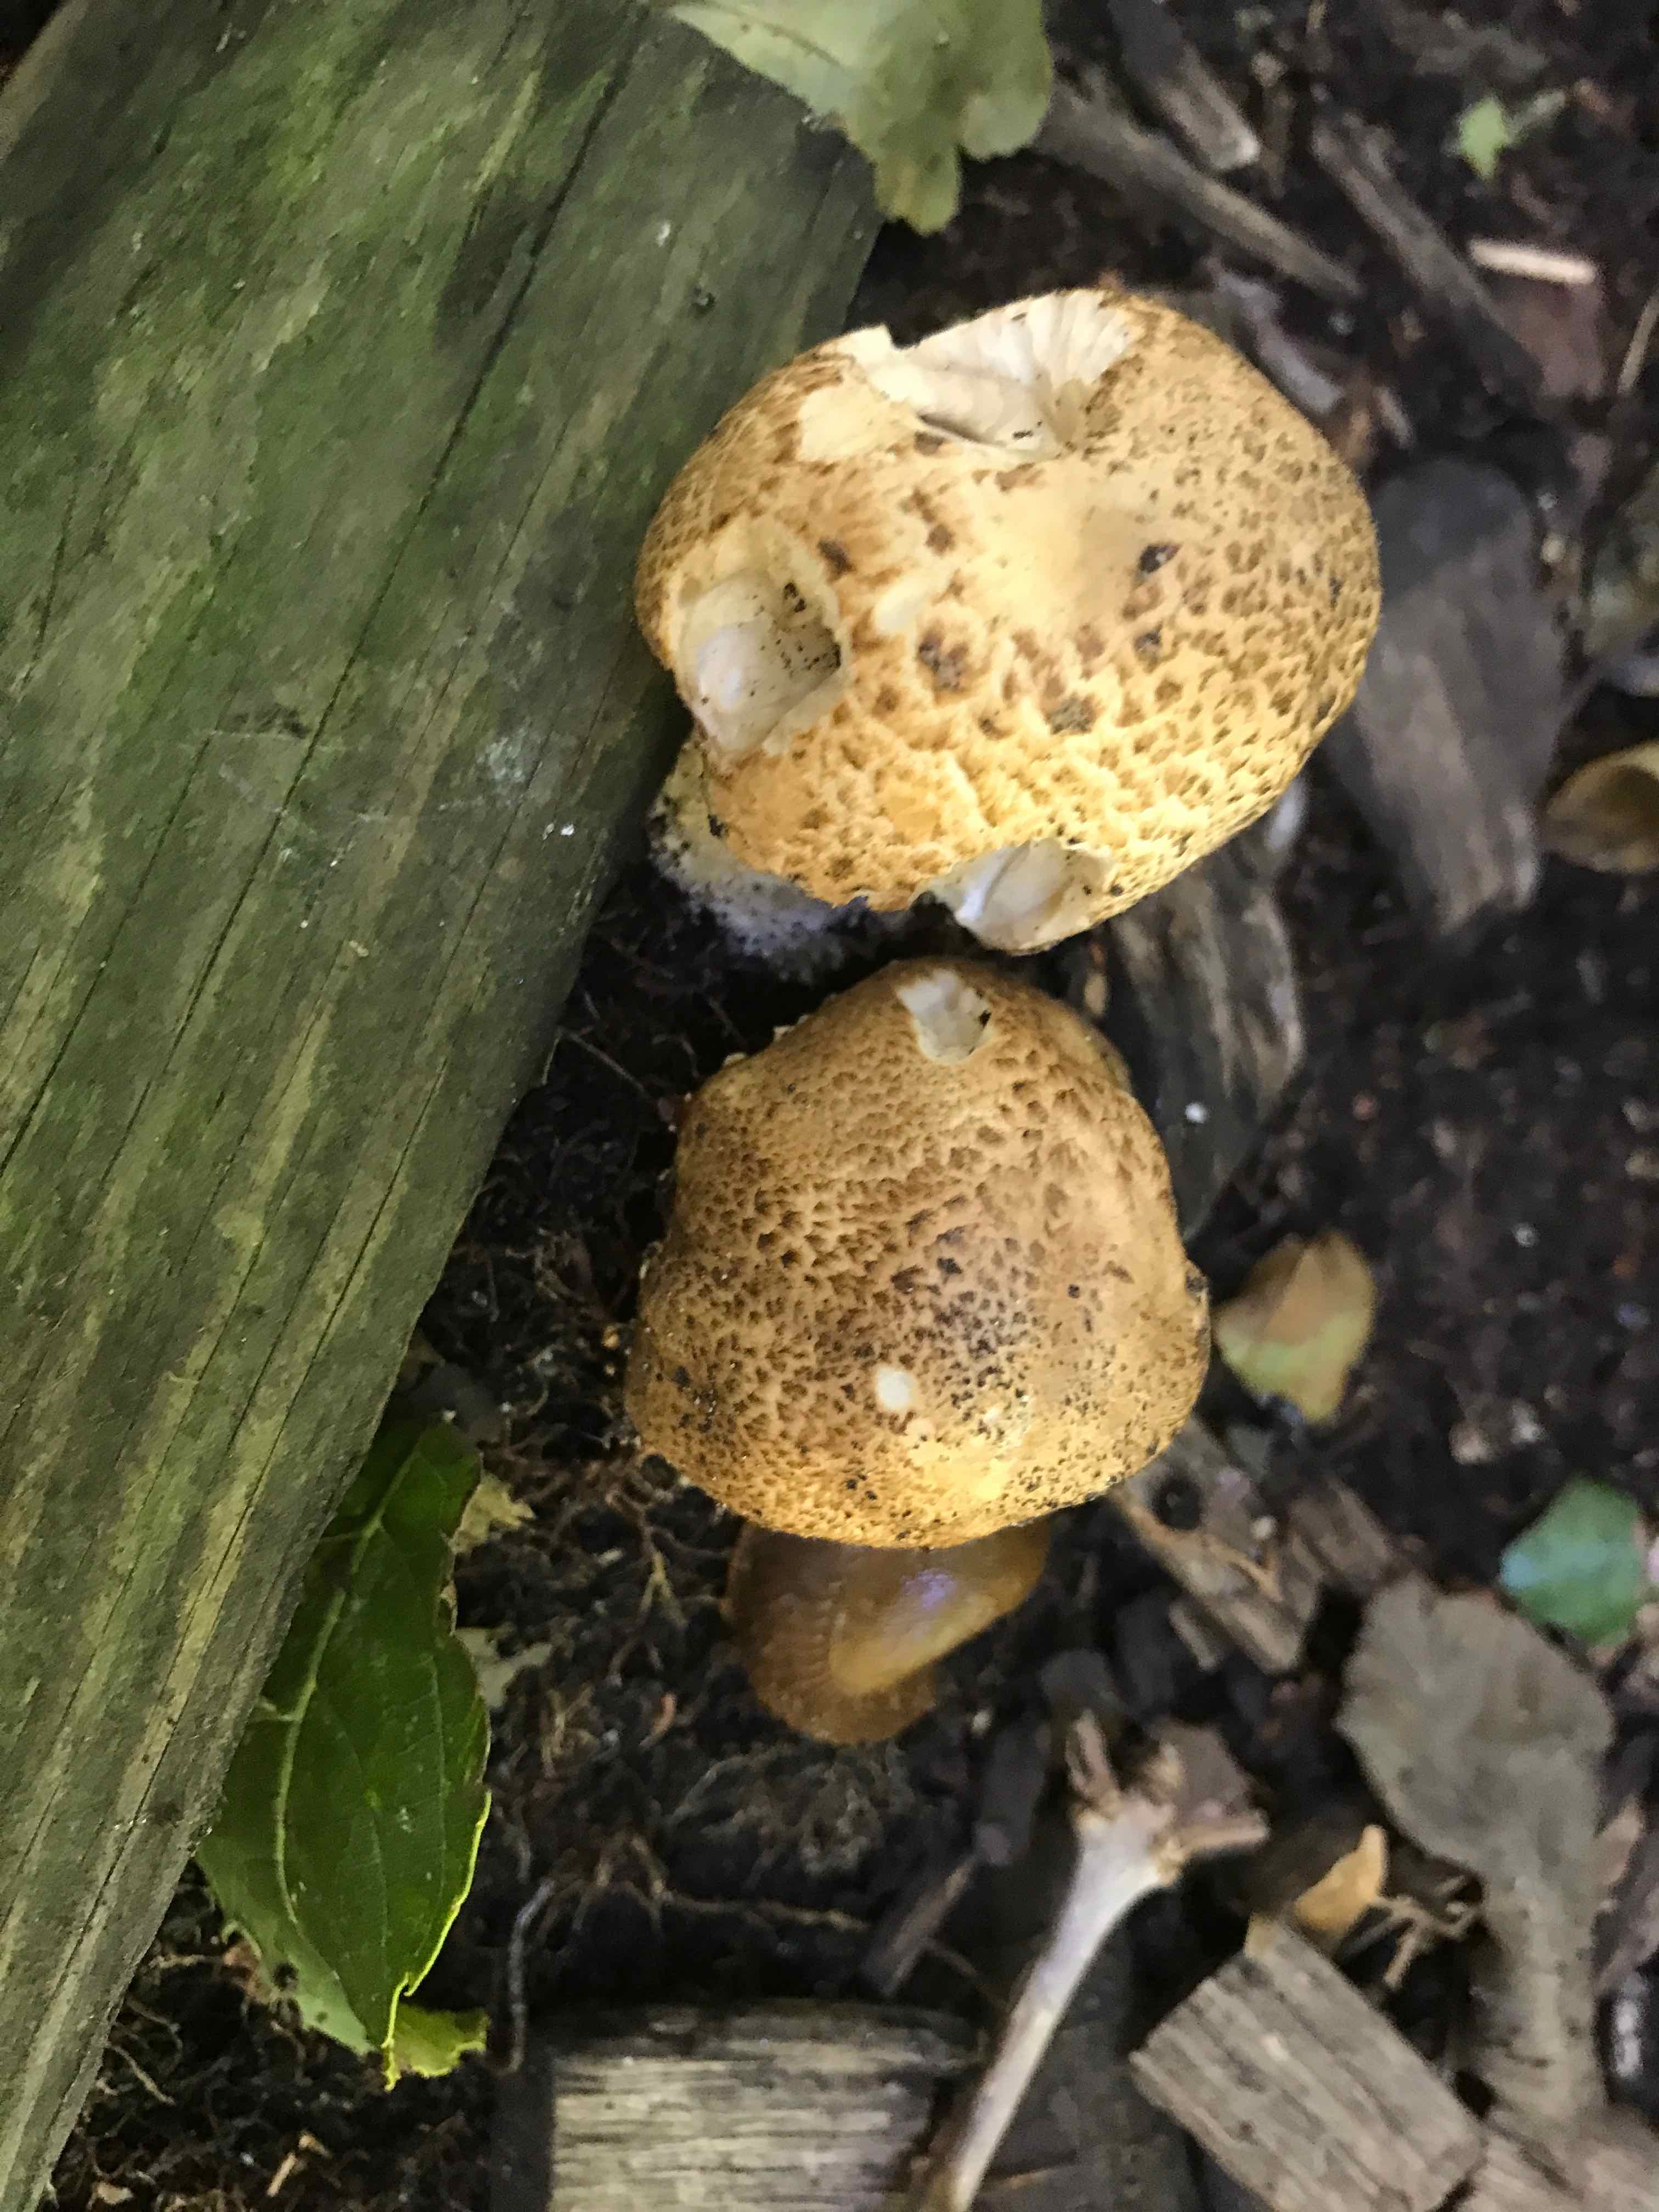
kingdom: Fungi
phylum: Basidiomycota
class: Agaricomycetes
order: Agaricales
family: Agaricaceae
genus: Agaricus
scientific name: Agaricus augustus
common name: prægtig champignon
